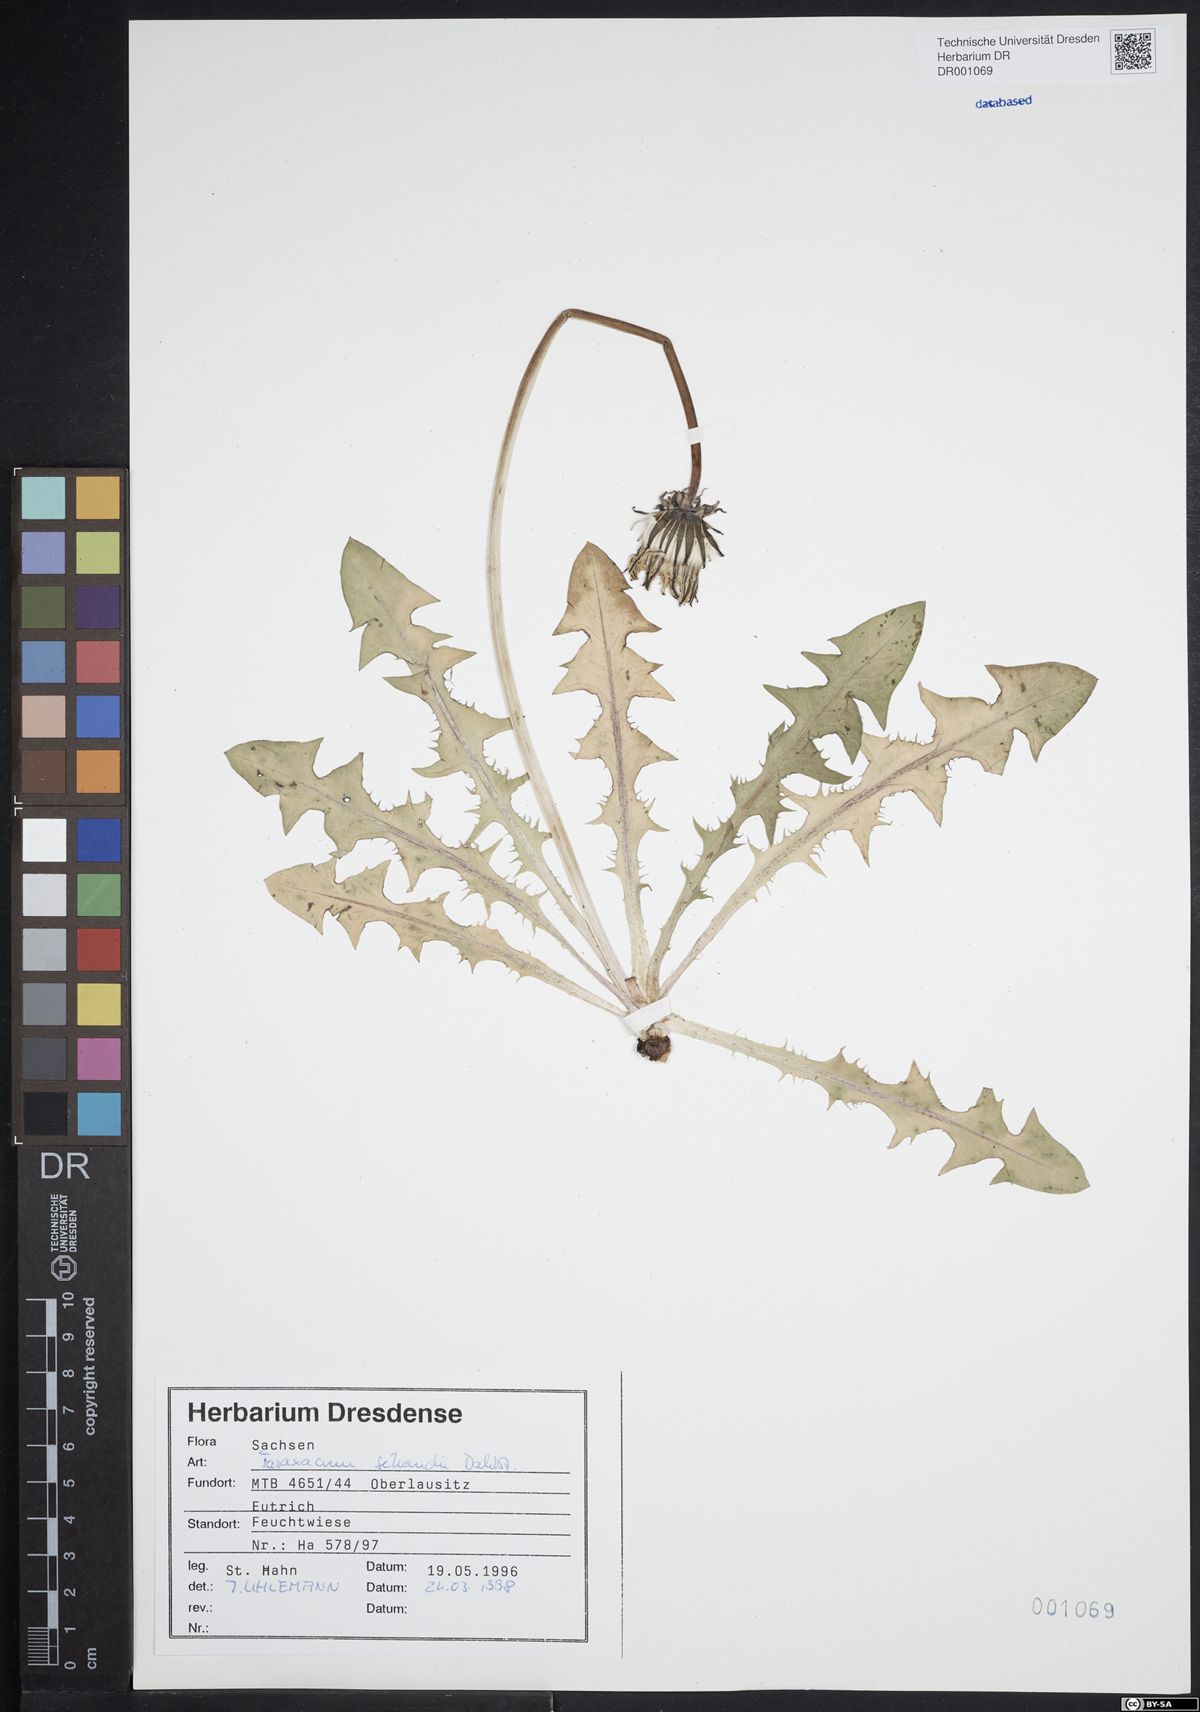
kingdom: Plantae
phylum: Tracheophyta
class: Magnoliopsida
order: Asterales
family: Asteraceae
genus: Taraxacum
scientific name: Taraxacum sellandii
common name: Selland's dandelion
